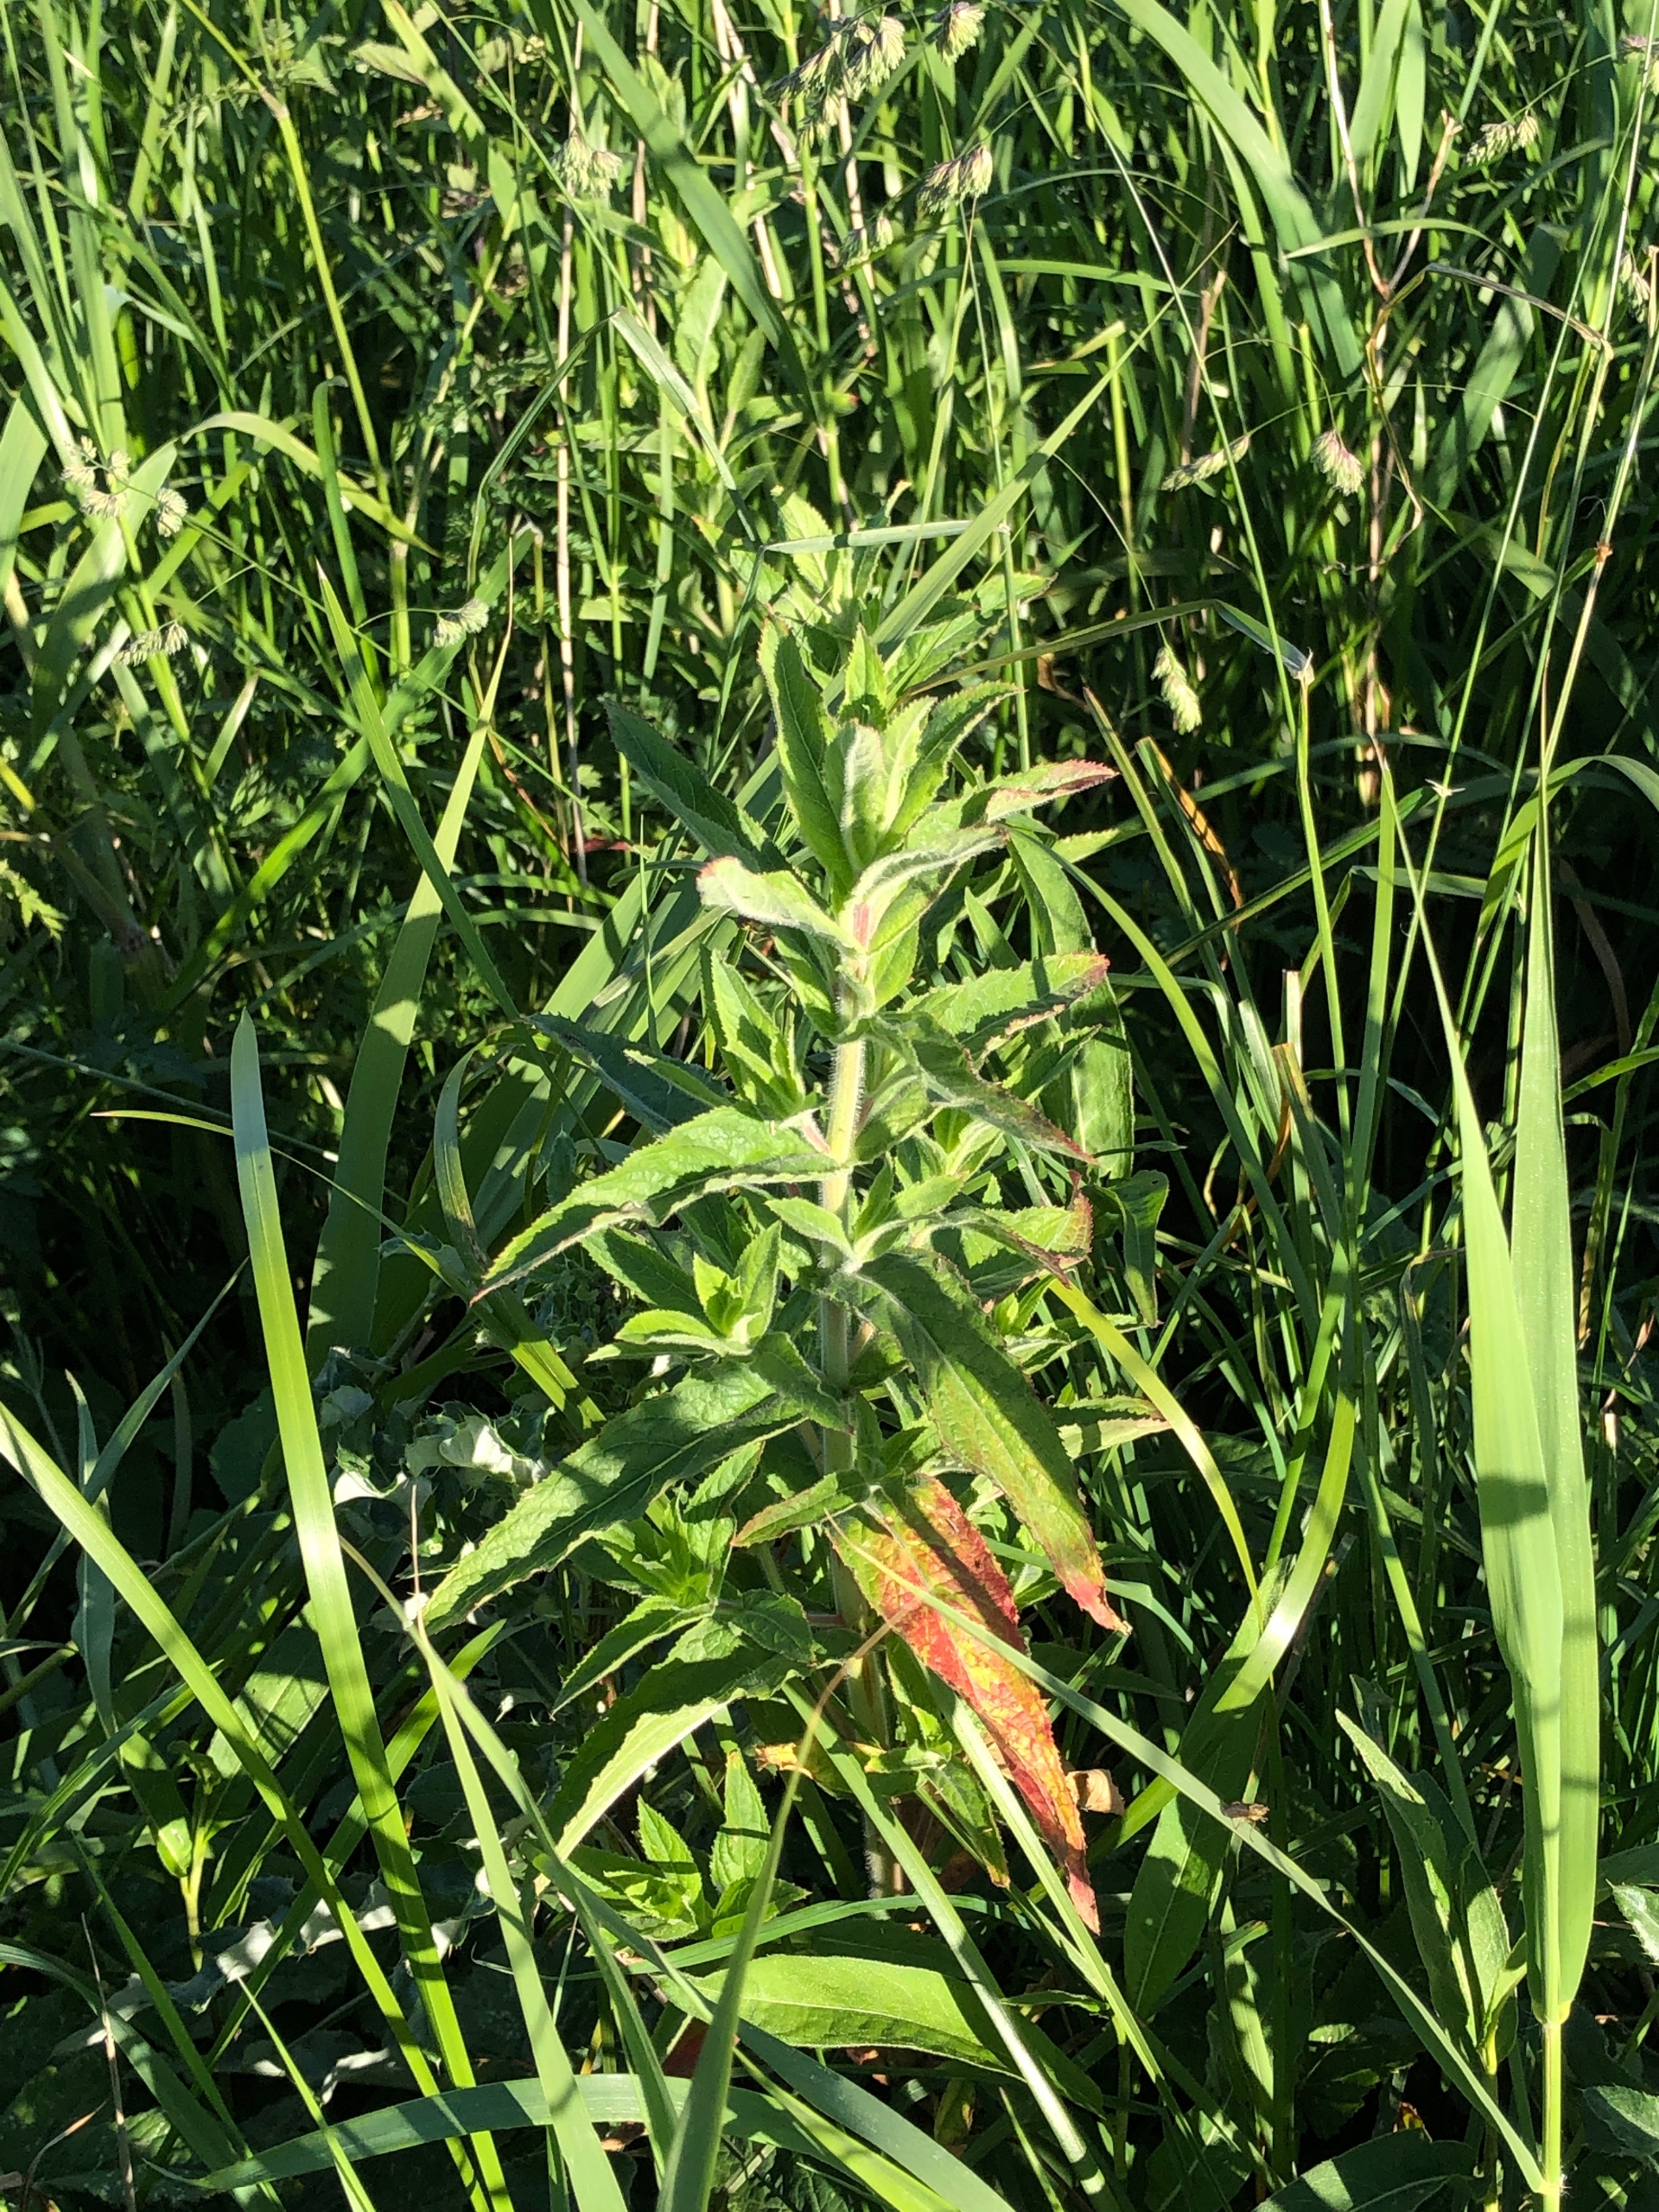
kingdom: Plantae
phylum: Tracheophyta
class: Magnoliopsida
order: Myrtales
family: Onagraceae
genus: Epilobium
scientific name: Epilobium hirsutum
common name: Lådden dueurt
